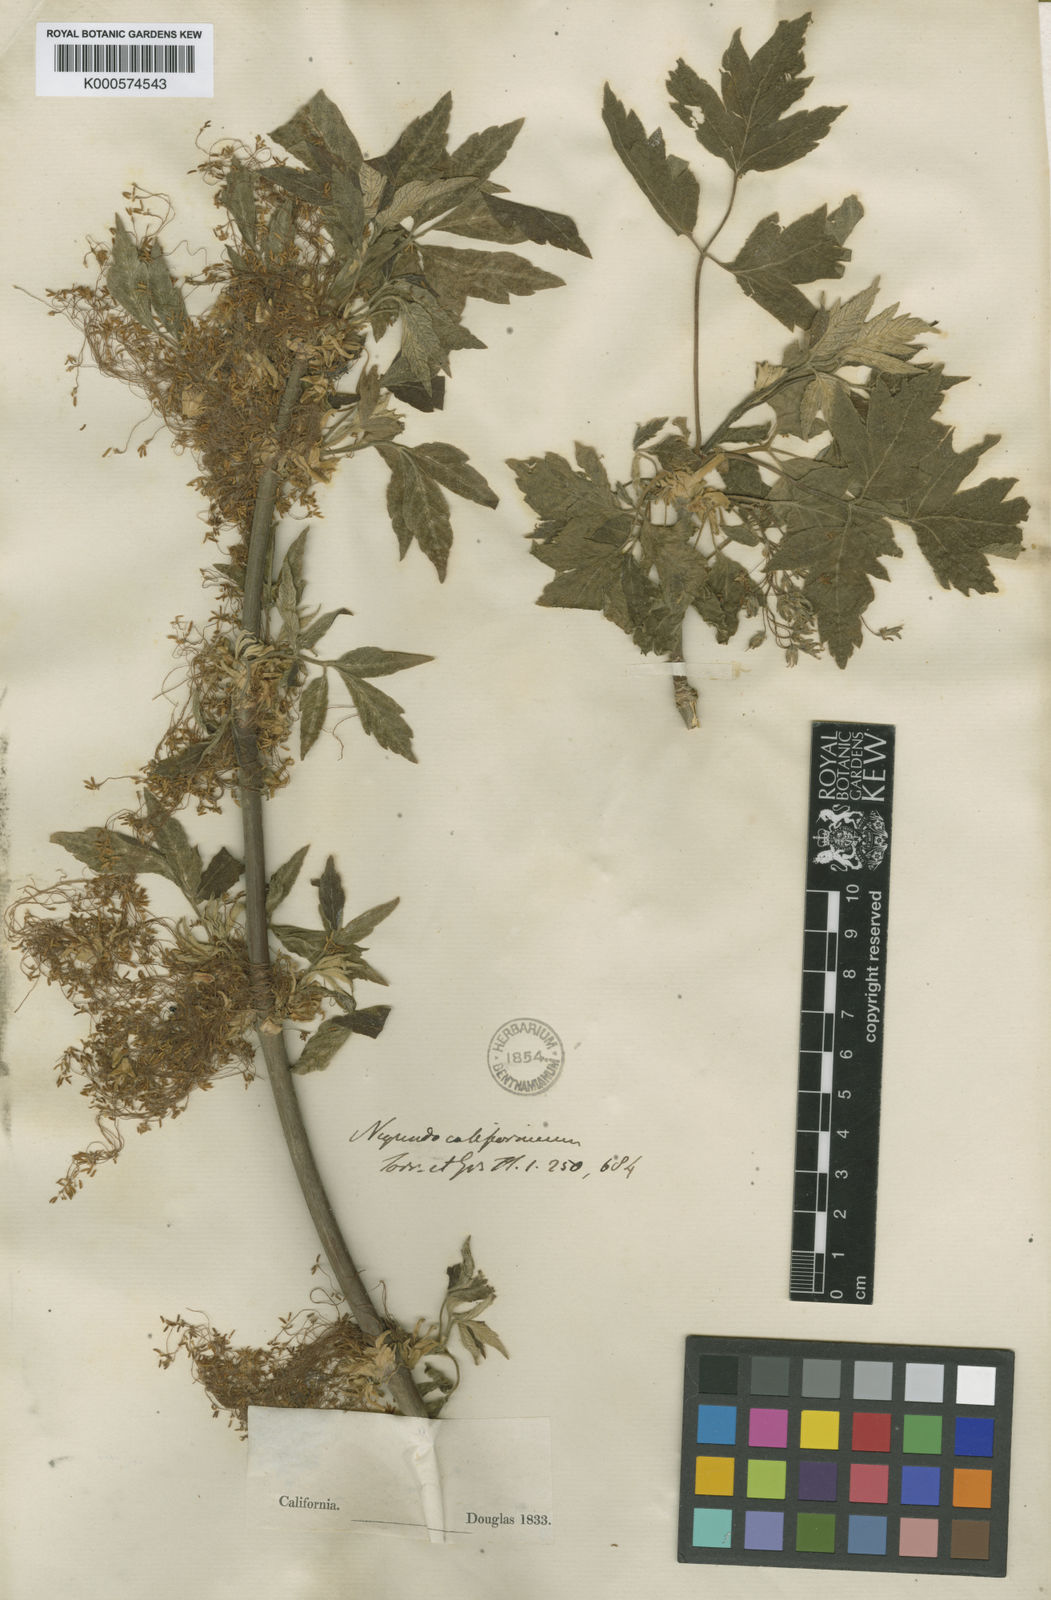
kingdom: Plantae
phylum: Tracheophyta
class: Magnoliopsida
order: Sapindales
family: Sapindaceae
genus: Acer
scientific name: Acer negundo
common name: Ashleaf maple
